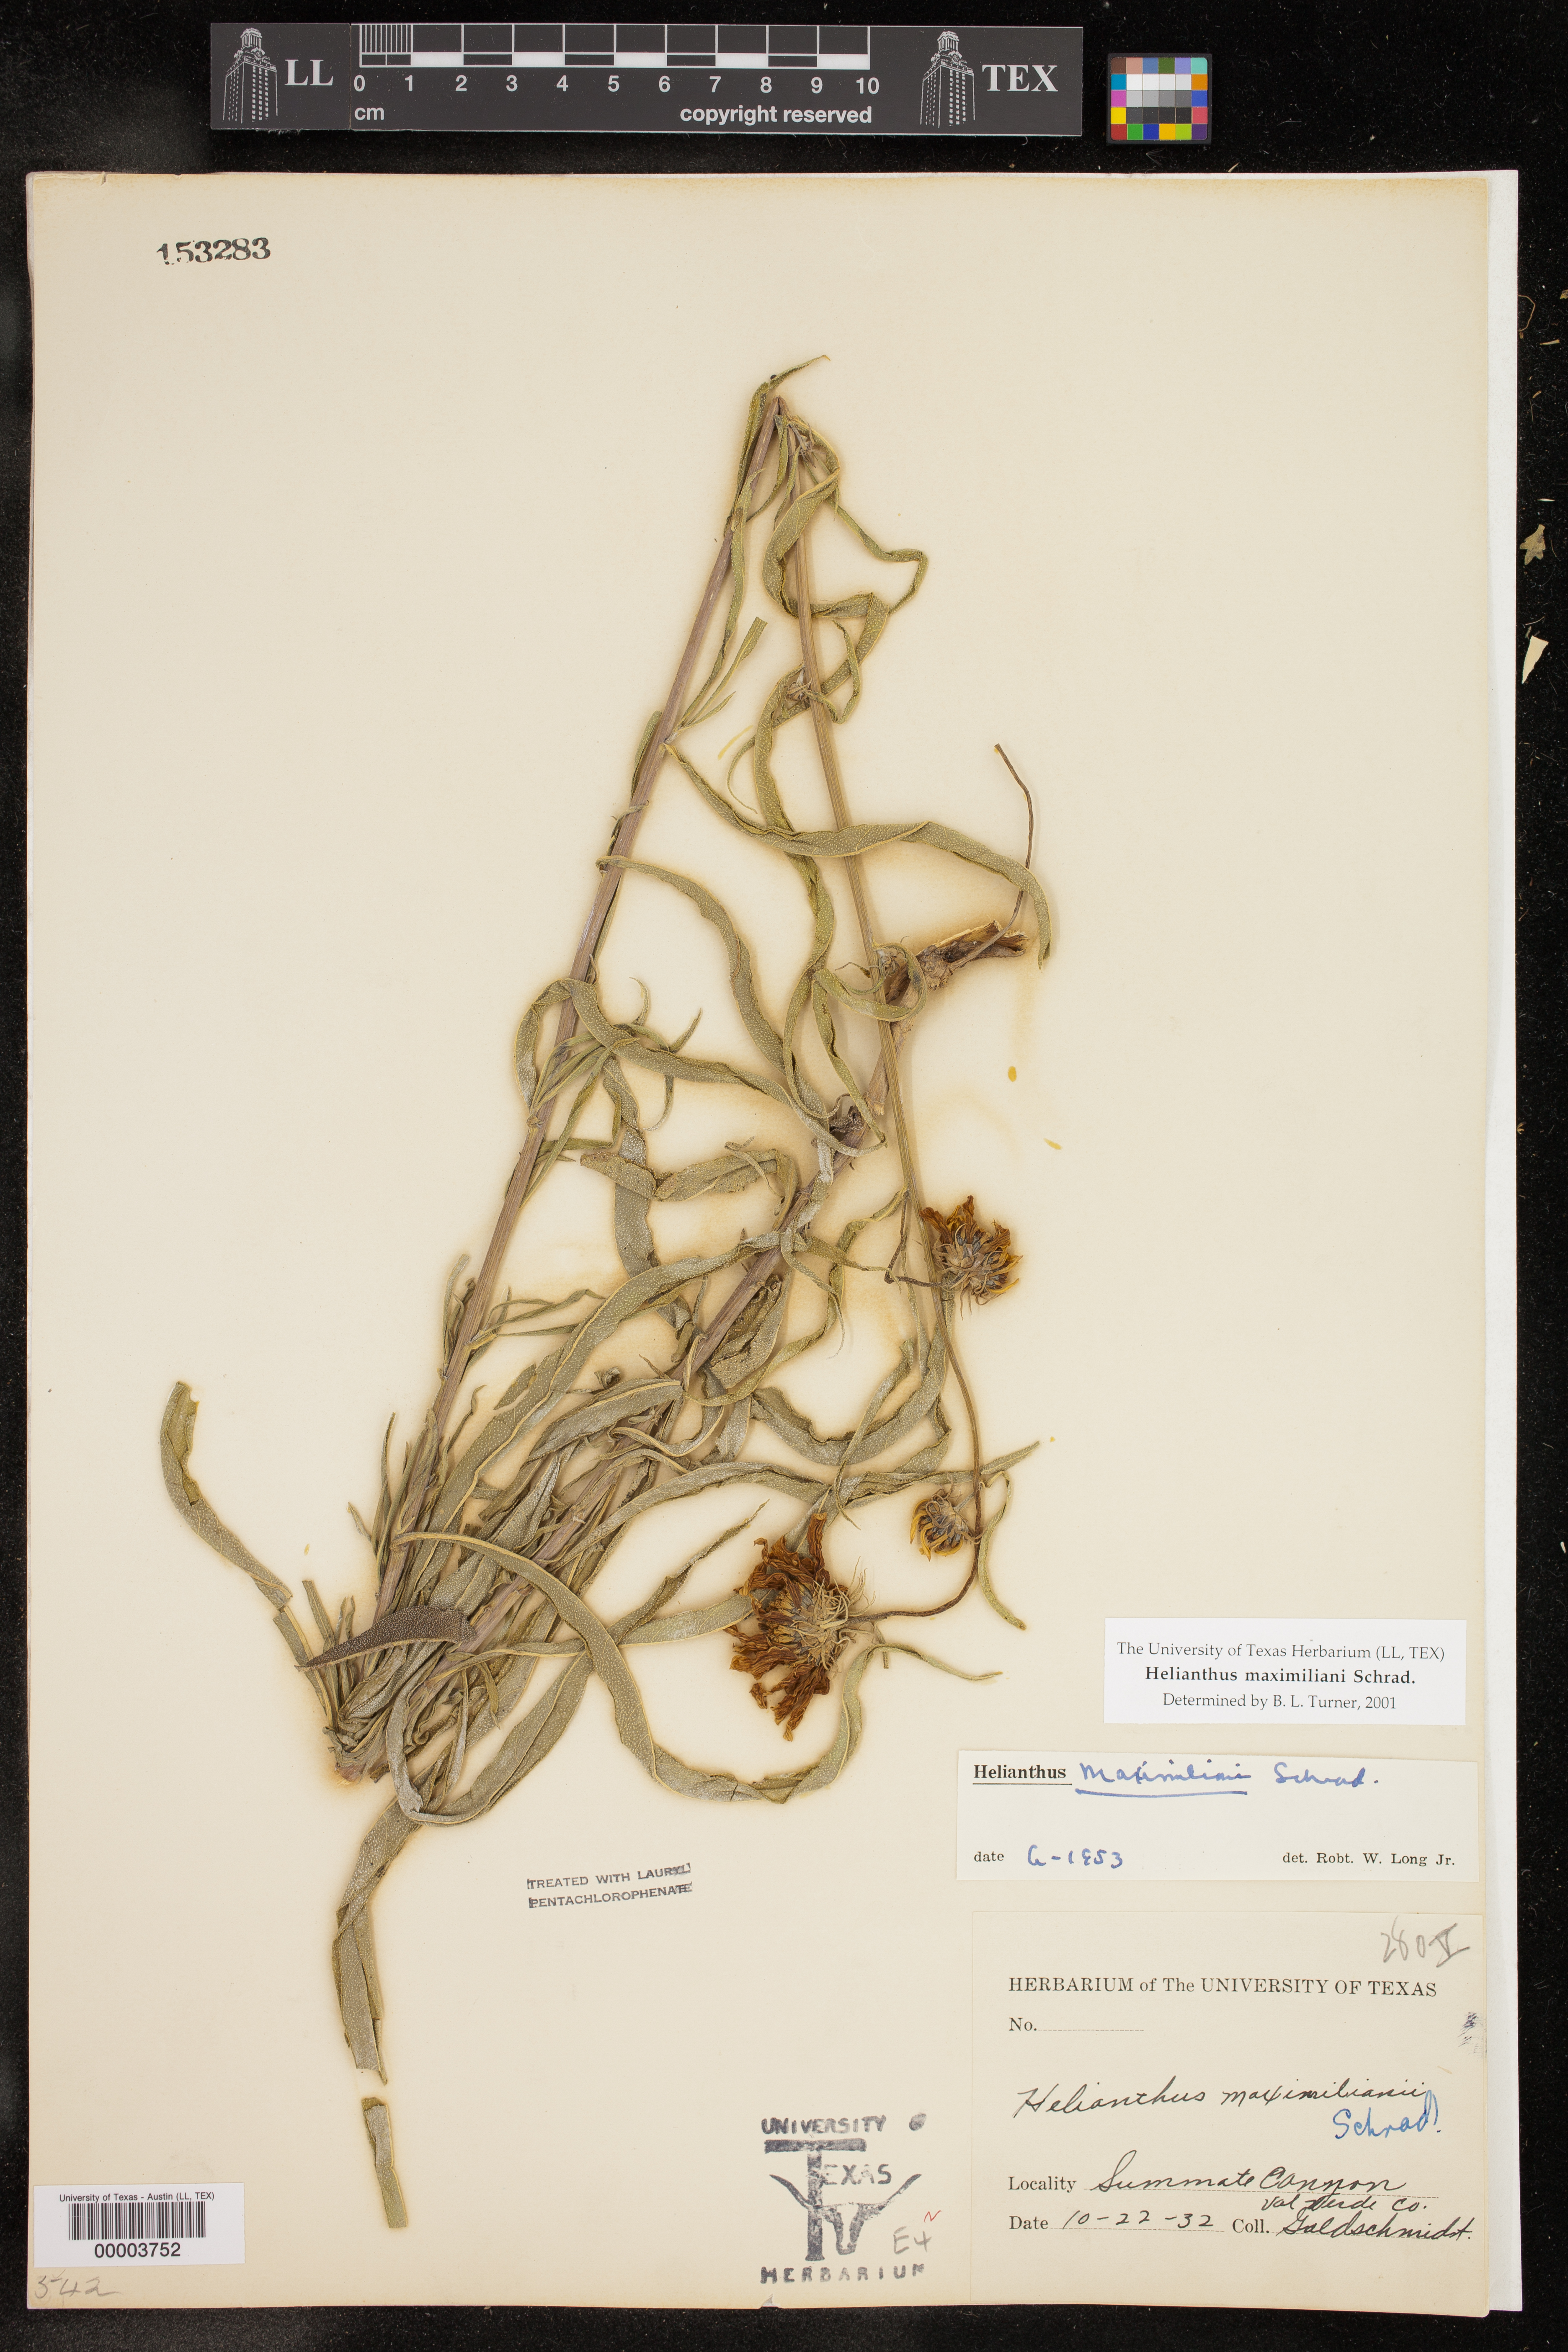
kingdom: Plantae
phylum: Tracheophyta
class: Magnoliopsida
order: Asterales
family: Asteraceae
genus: Helianthus
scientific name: Helianthus maximiliani
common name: Maximilian's sunflower
